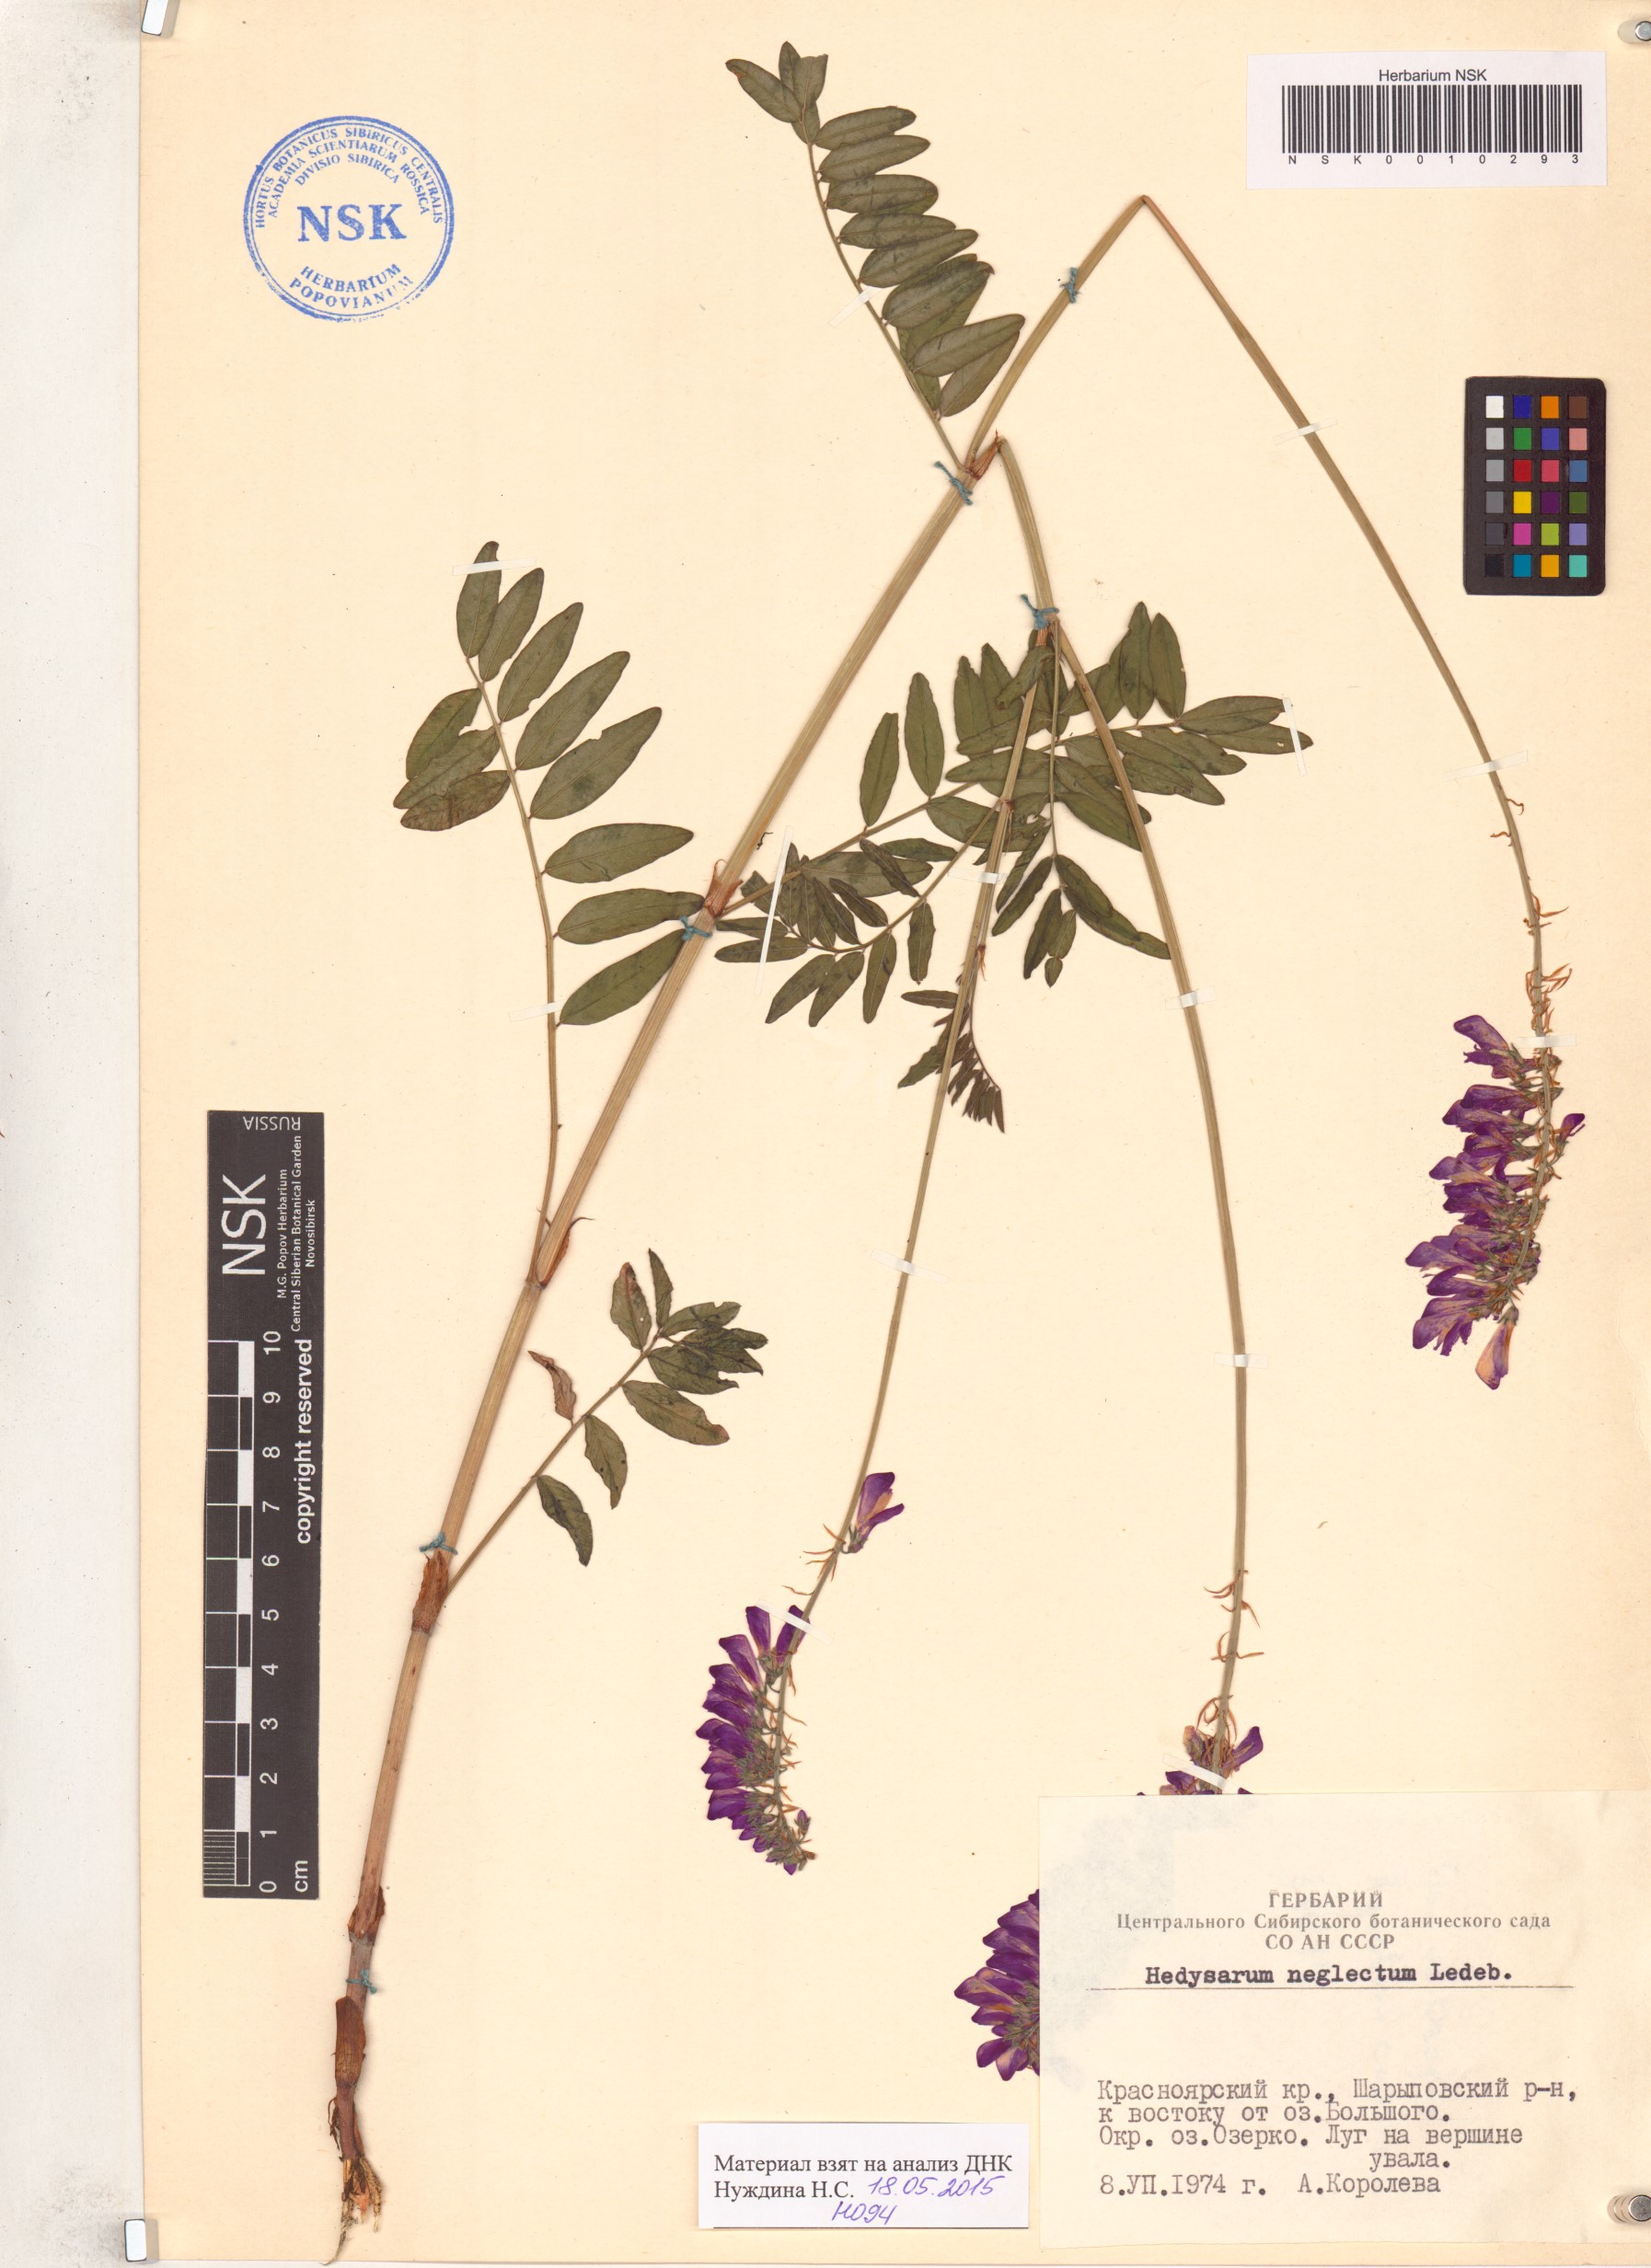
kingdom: Plantae
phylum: Tracheophyta
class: Magnoliopsida
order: Fabales
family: Fabaceae
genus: Hedysarum
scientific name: Hedysarum neglectum
